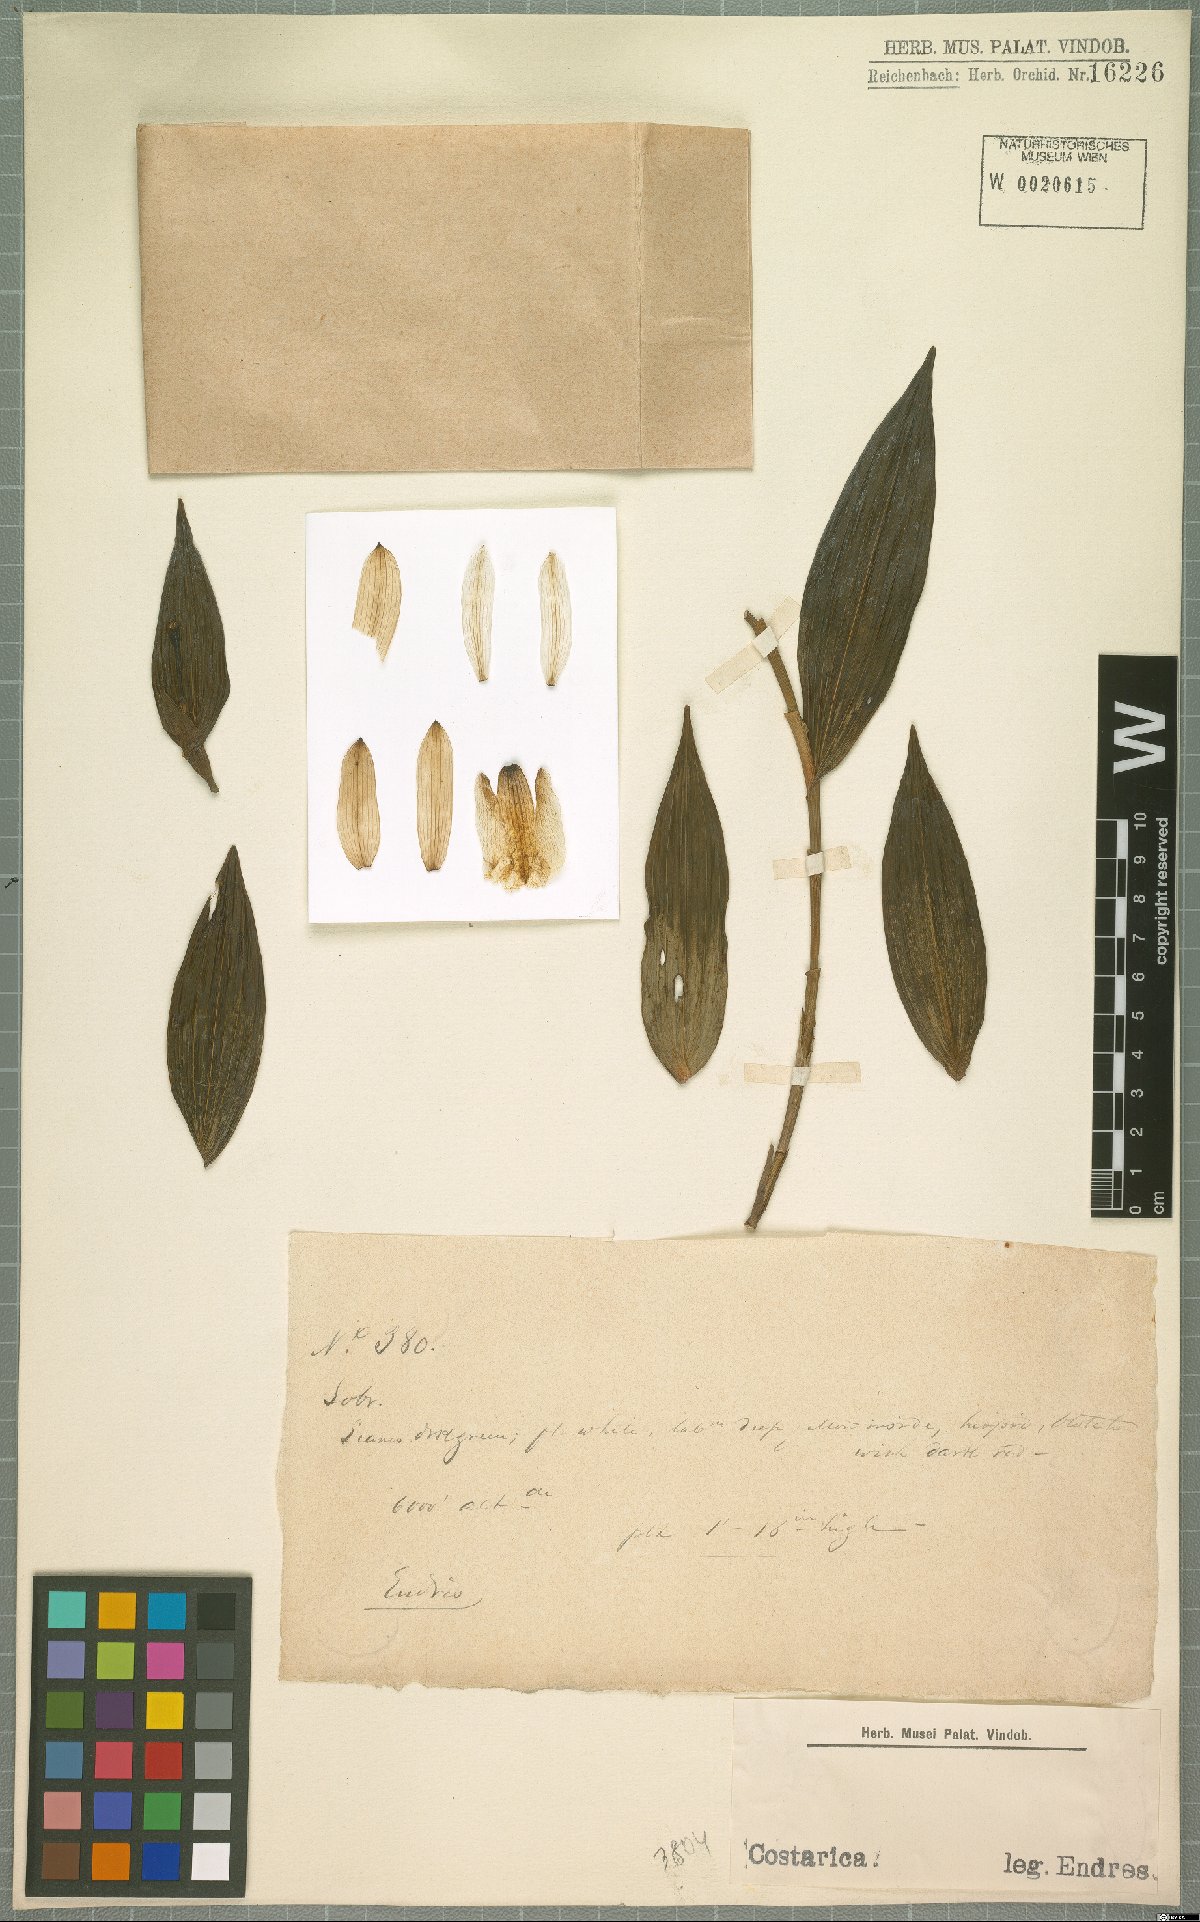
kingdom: Plantae
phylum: Tracheophyta
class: Liliopsida
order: Asparagales
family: Orchidaceae
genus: Sobralia
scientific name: Sobralia
